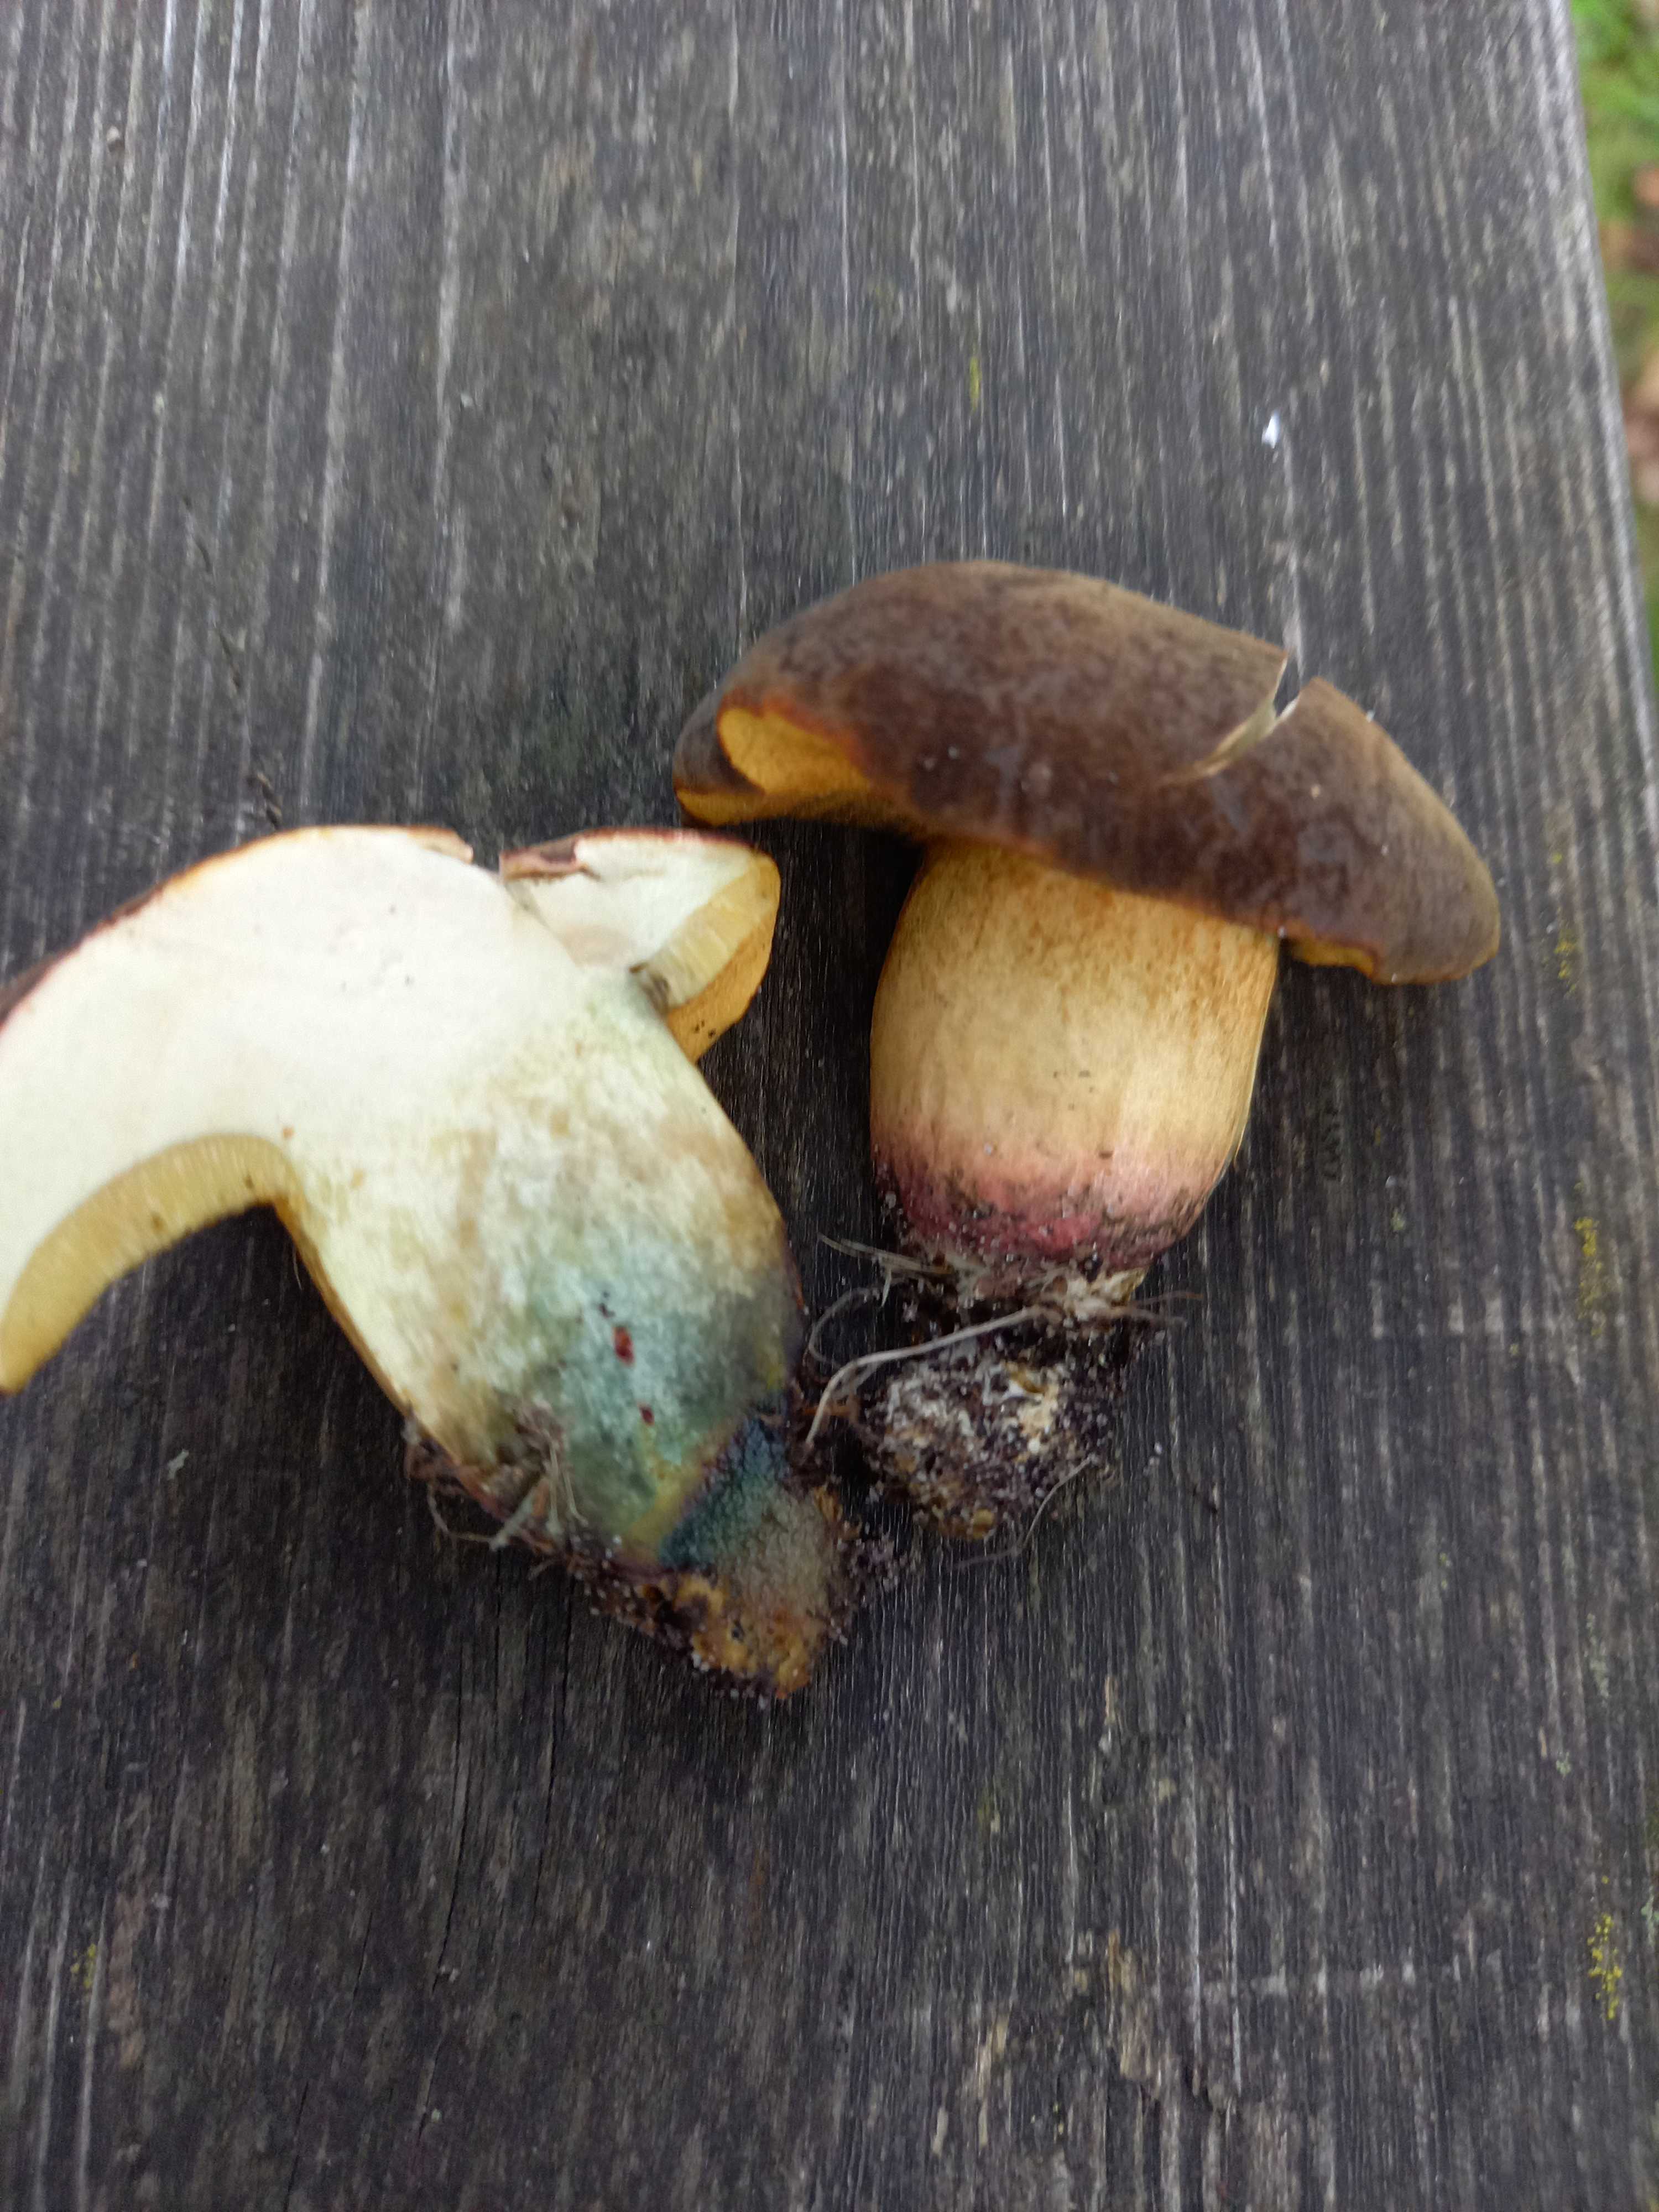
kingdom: Fungi
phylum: Basidiomycota
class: Agaricomycetes
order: Boletales
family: Boletaceae
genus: Xerocomellus
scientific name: Xerocomellus cisalpinus
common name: finsprukken rørhat
